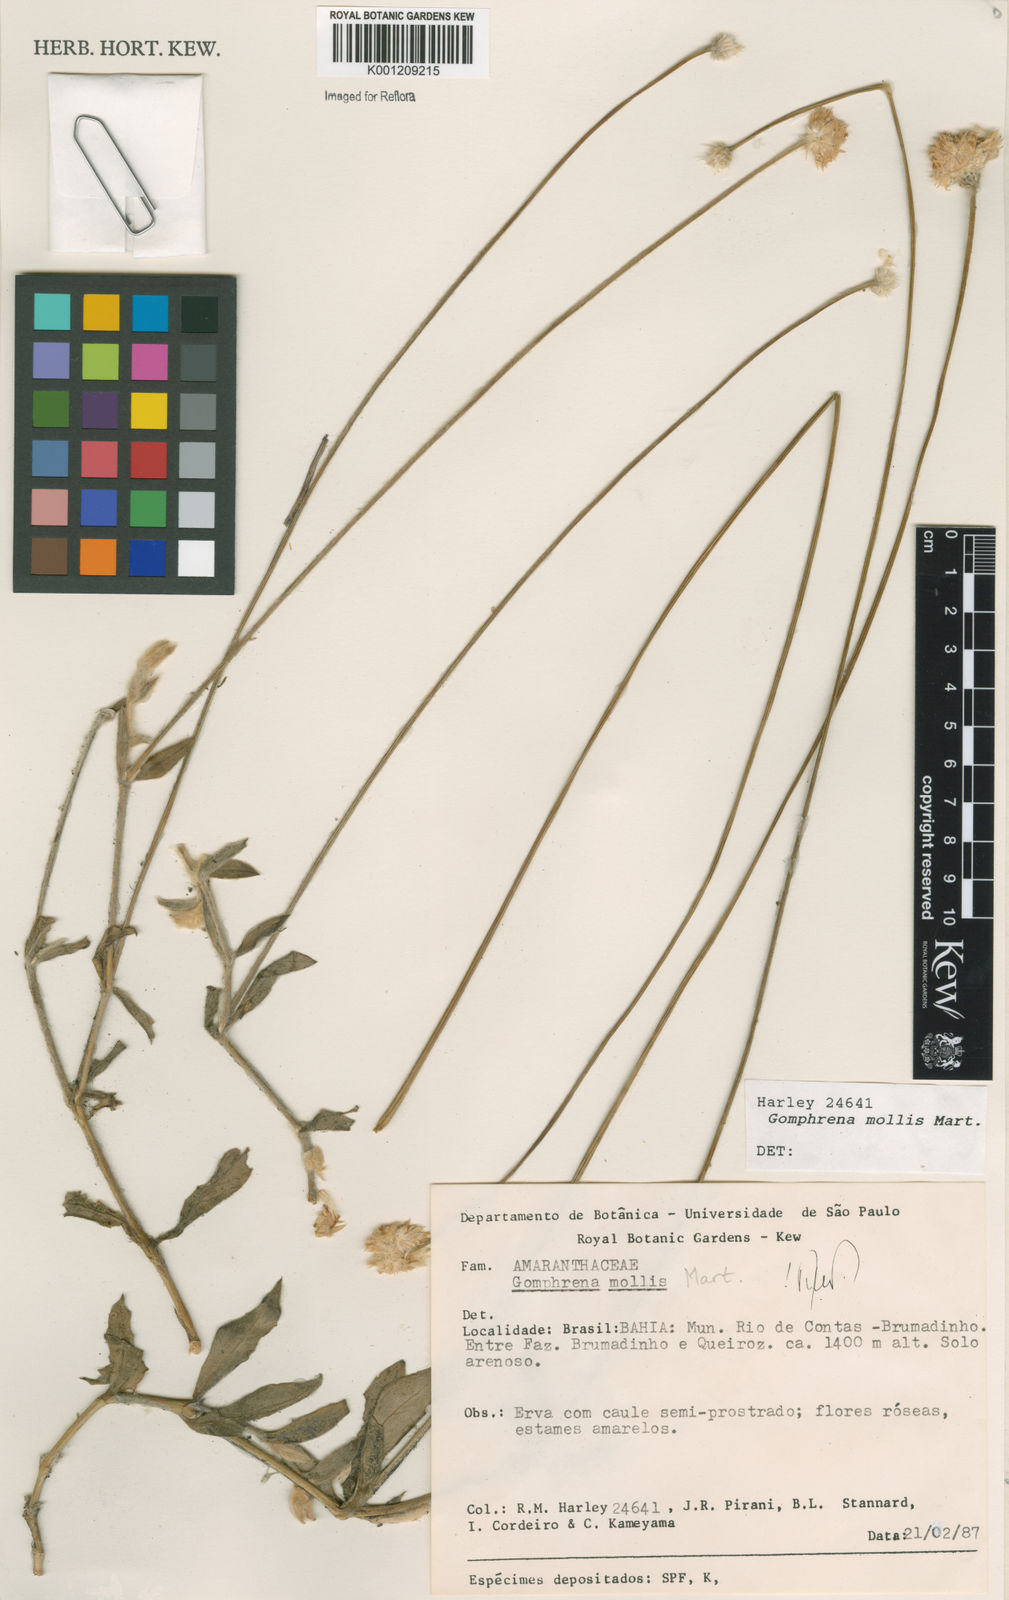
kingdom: Plantae
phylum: Tracheophyta
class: Magnoliopsida
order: Caryophyllales
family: Amaranthaceae
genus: Gomphrena
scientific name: Gomphrena mollis
